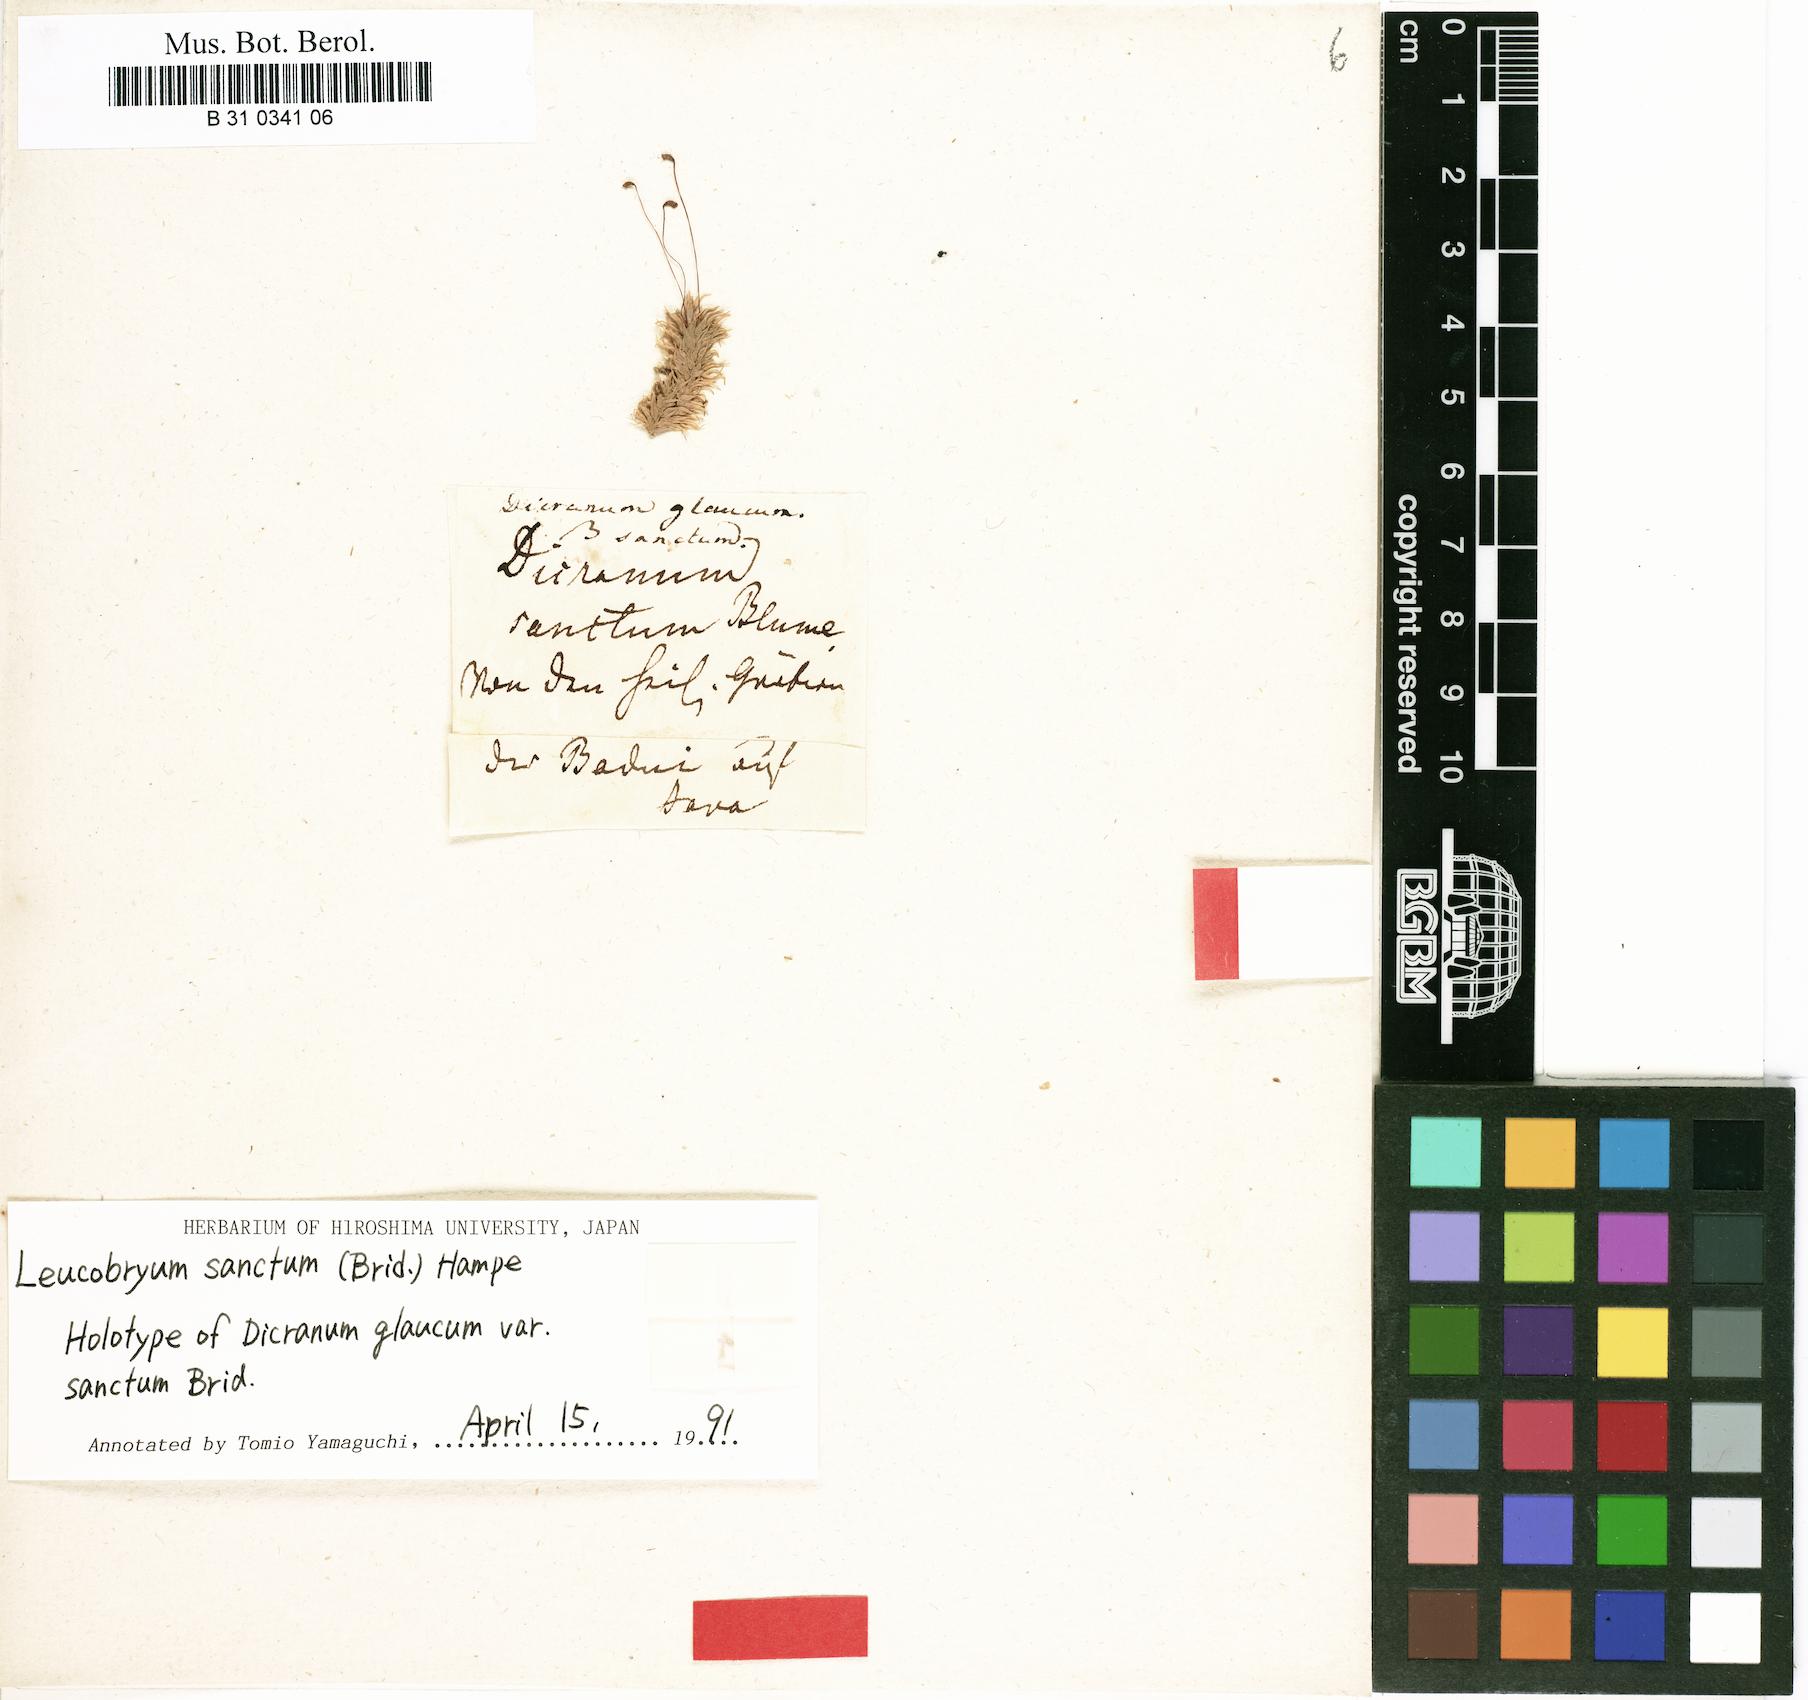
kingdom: Plantae
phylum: Bryophyta
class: Bryopsida
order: Dicranales
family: Leucobryaceae
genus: Leucobryum
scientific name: Leucobryum glaucum
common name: Large white-moss
